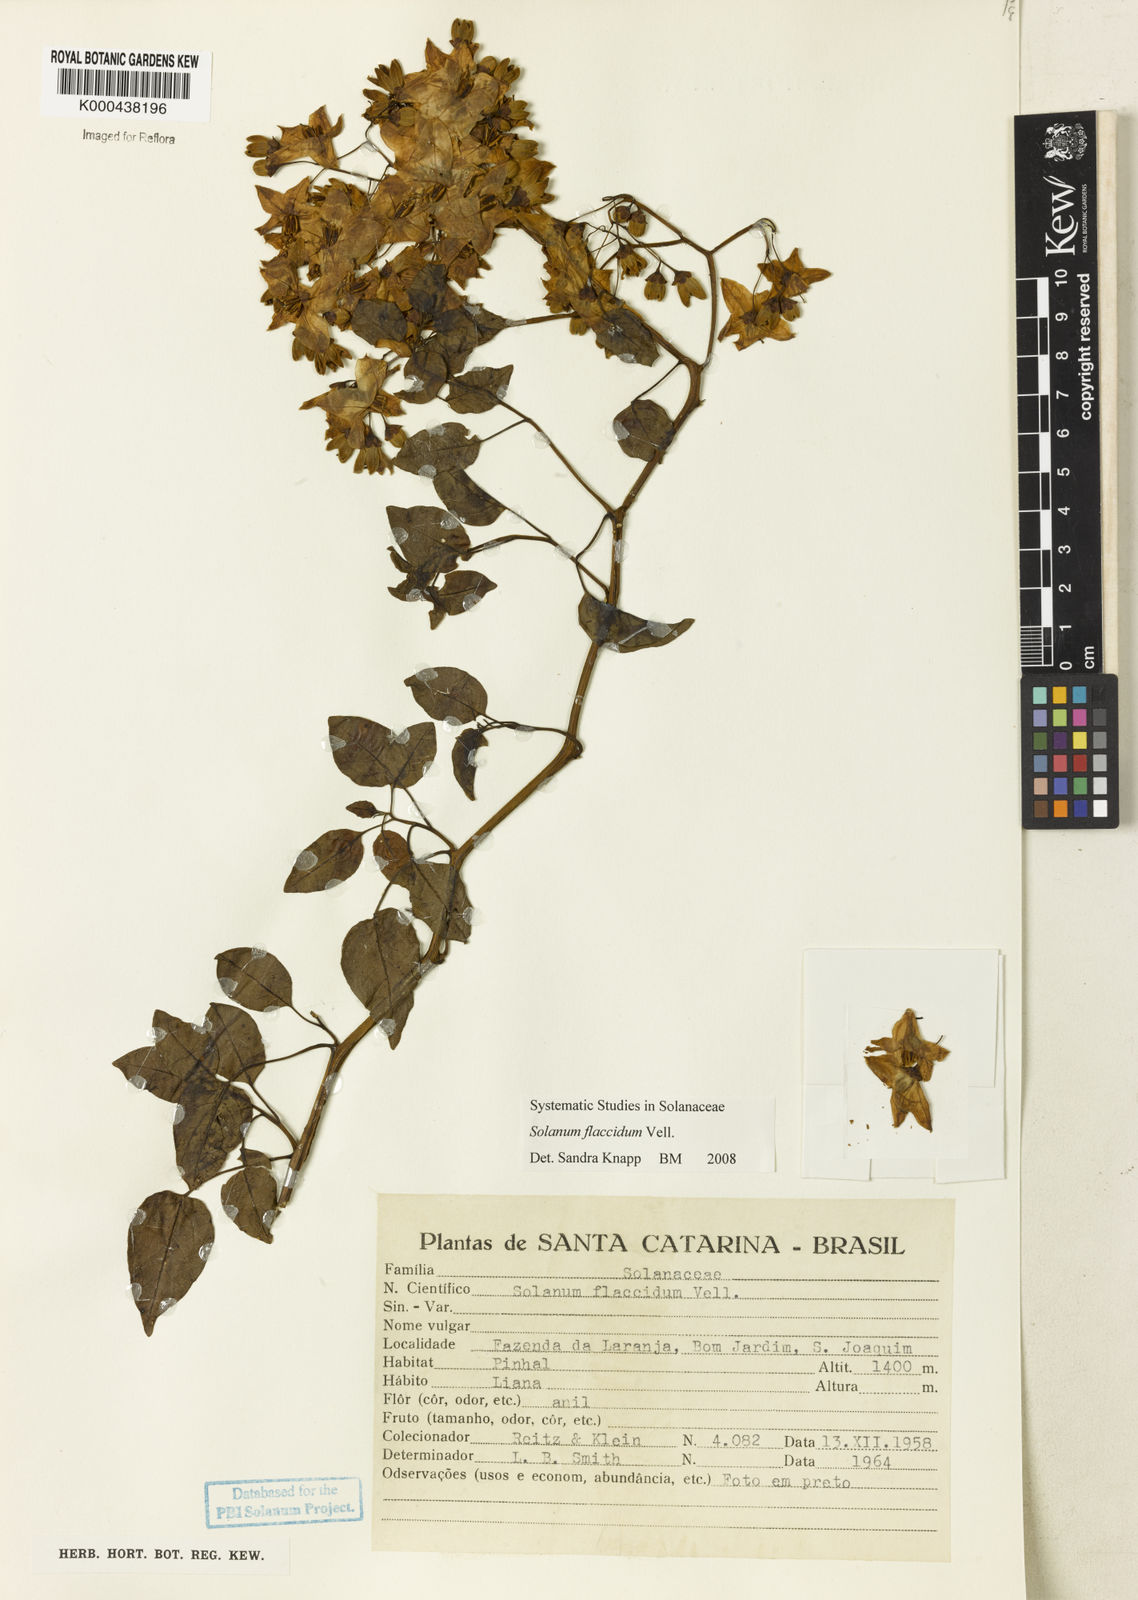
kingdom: Plantae
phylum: Tracheophyta
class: Magnoliopsida
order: Solanales
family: Solanaceae
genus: Solanum
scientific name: Solanum flaccidum
